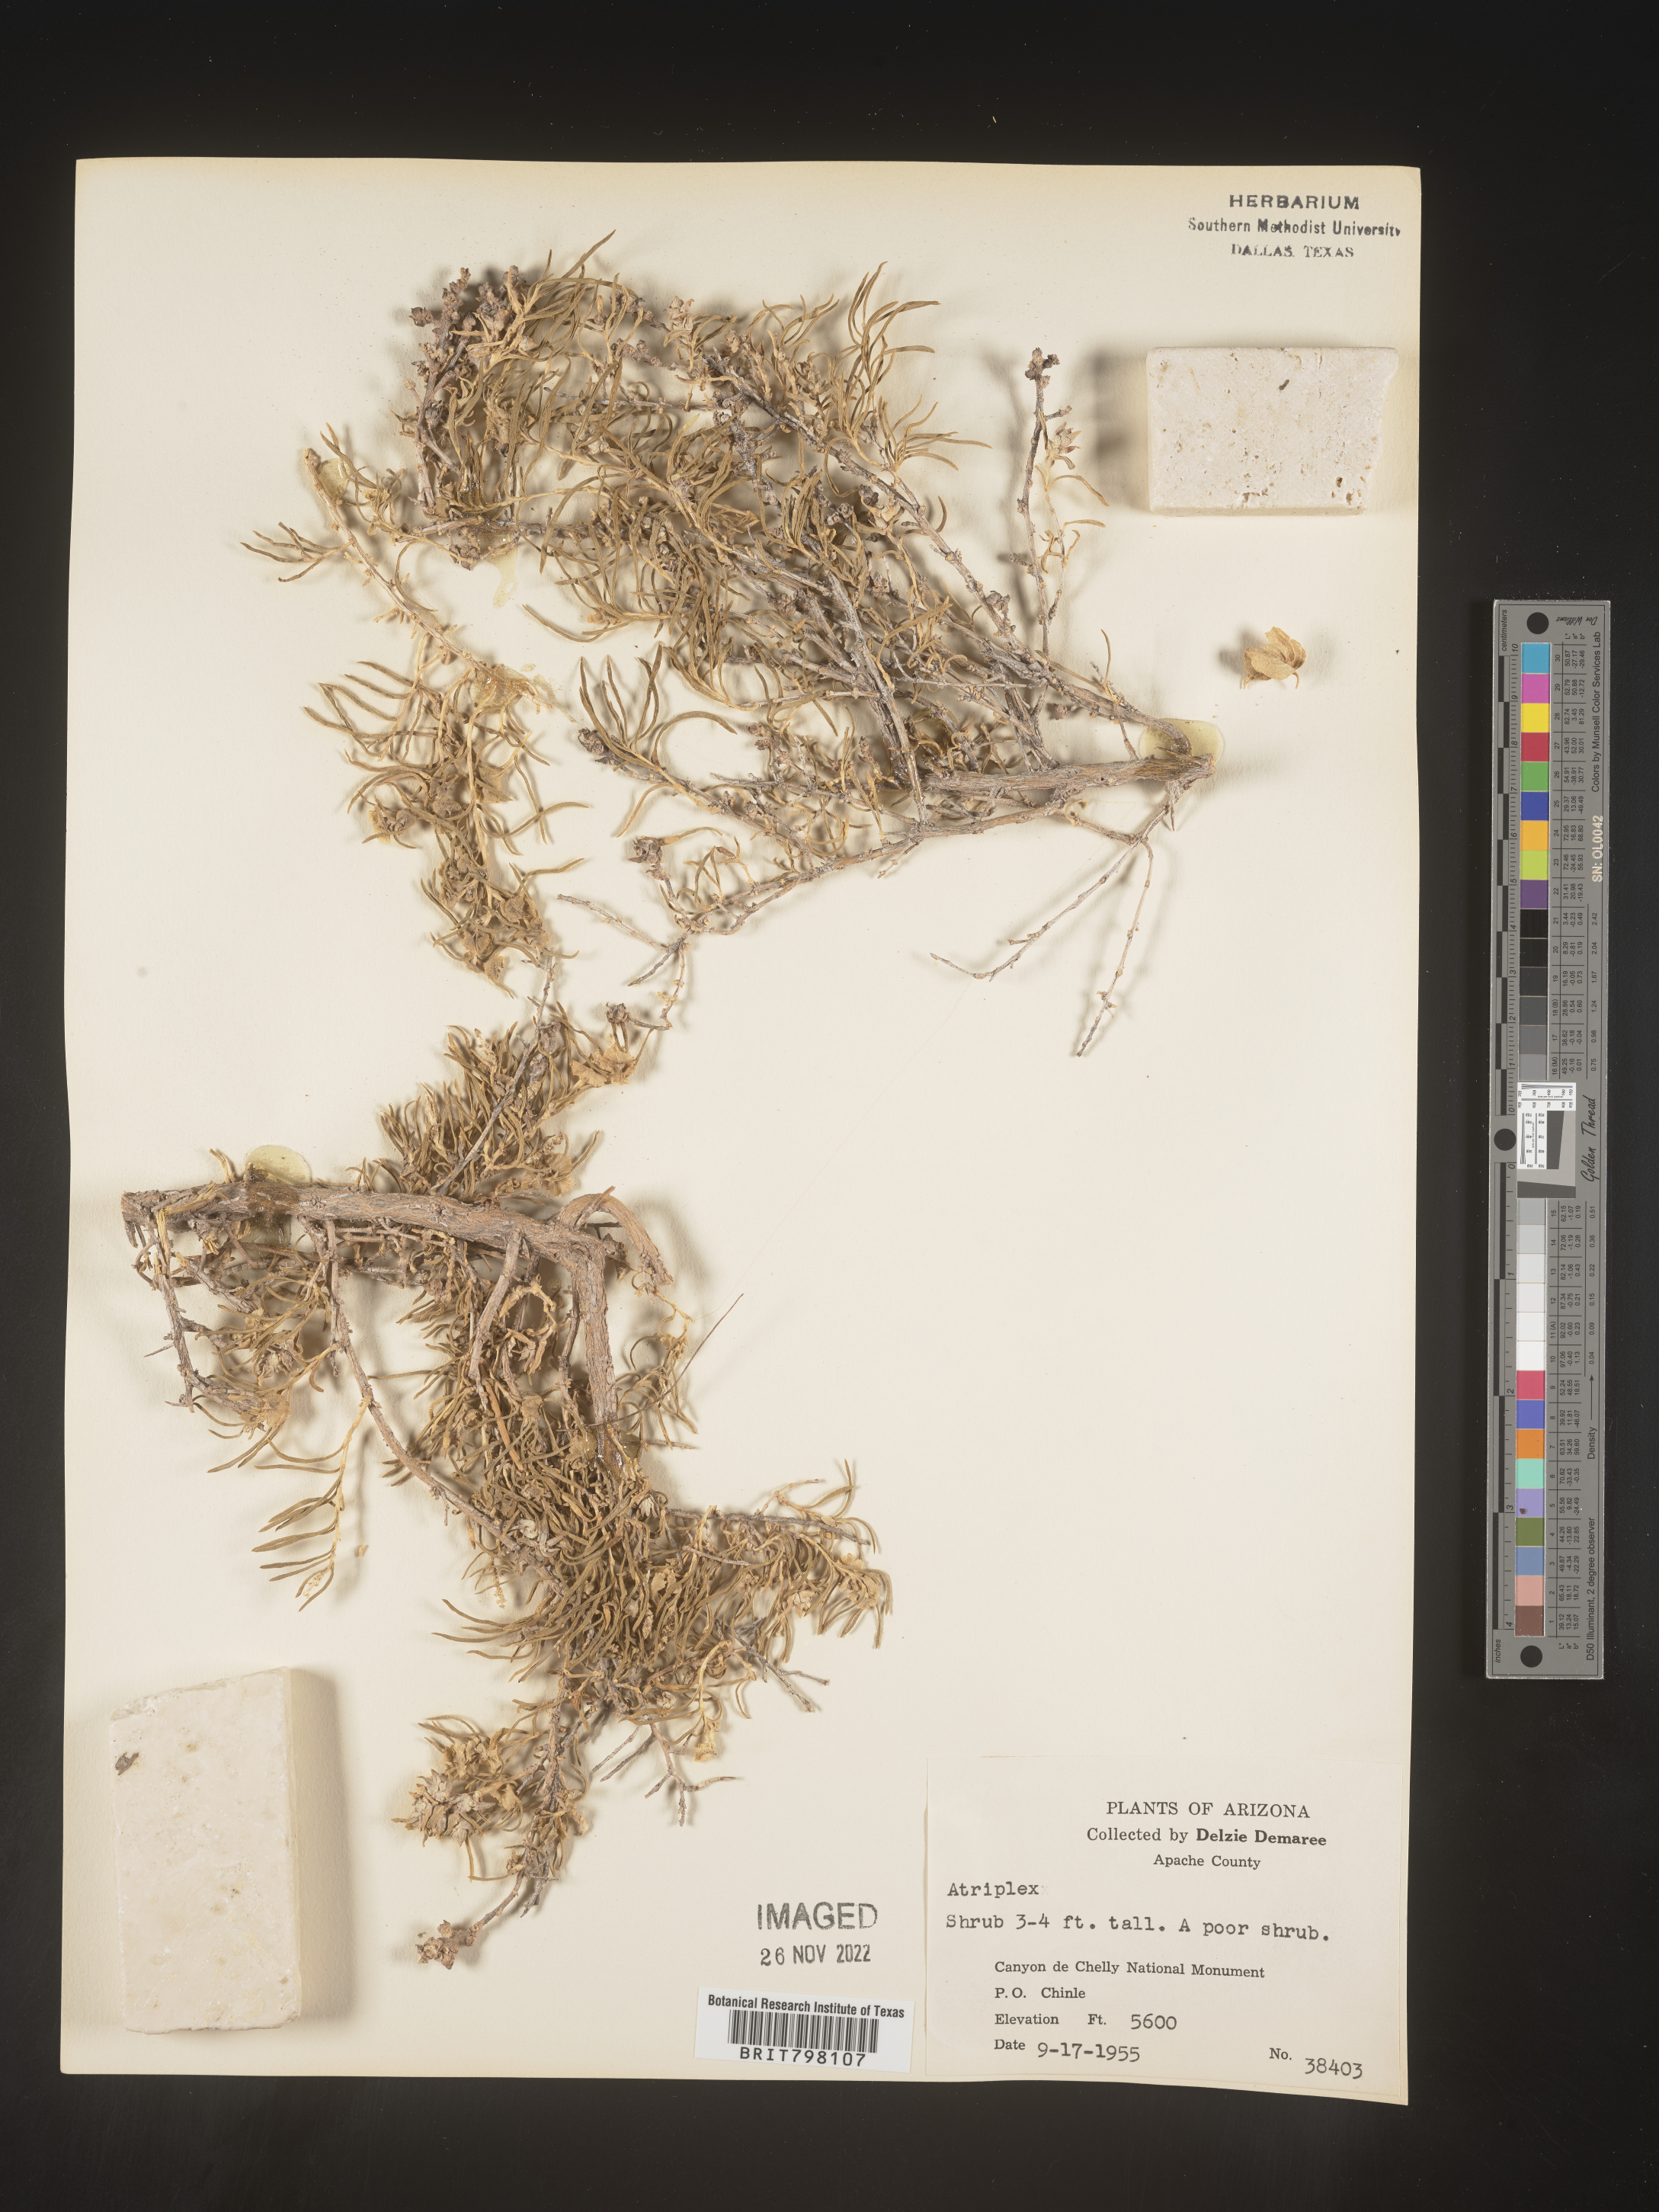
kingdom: Plantae
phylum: Tracheophyta
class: Magnoliopsida
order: Caryophyllales
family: Amaranthaceae
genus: Atriplex
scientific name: Atriplex
